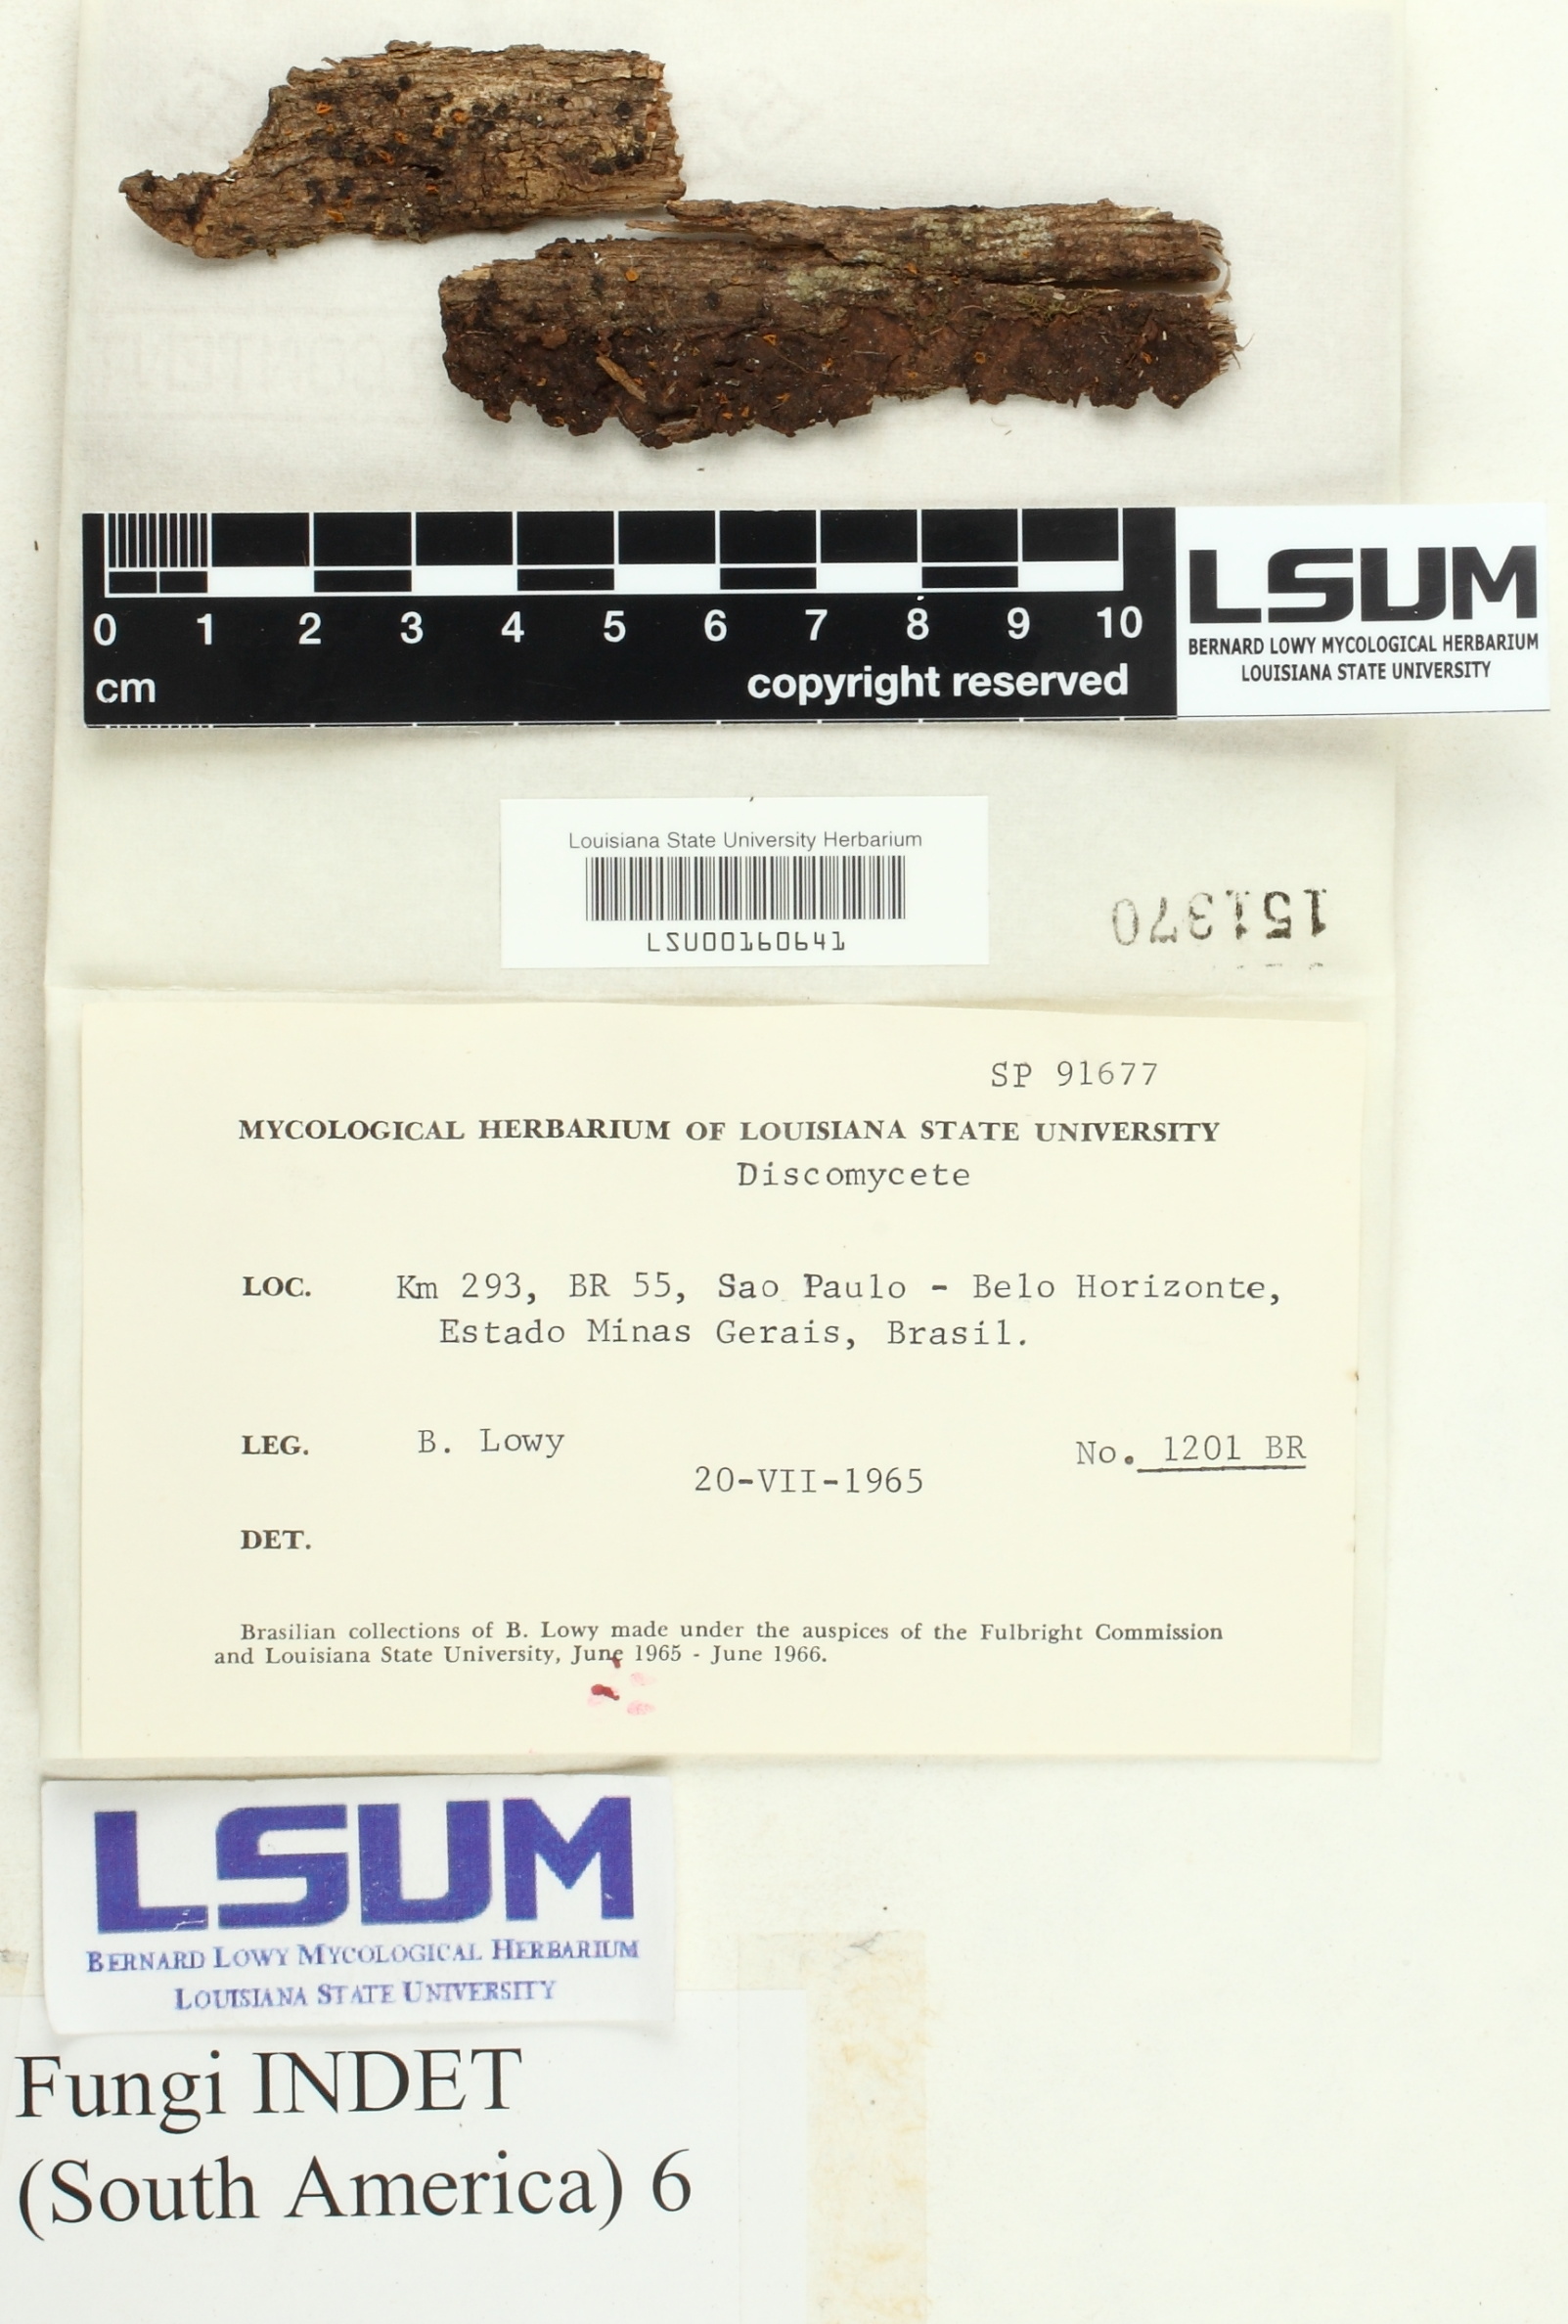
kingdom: Fungi
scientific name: Fungi
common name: Fungi
